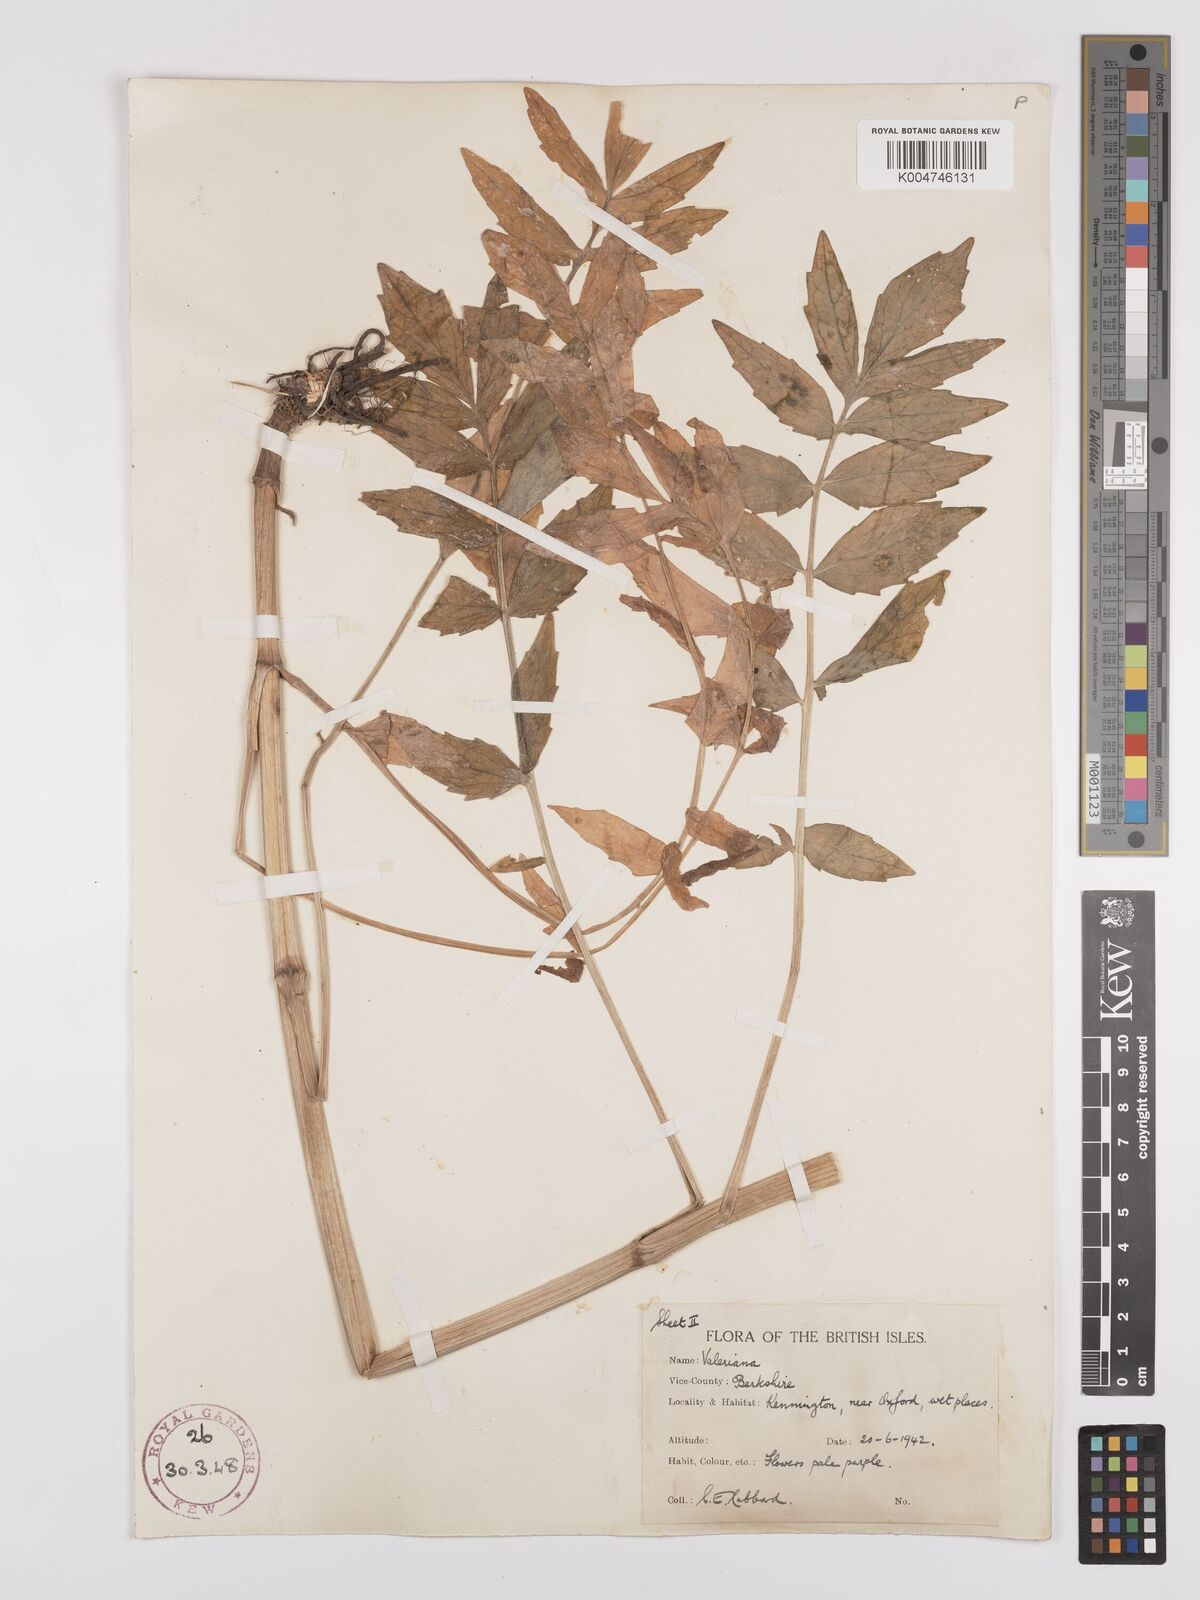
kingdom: Plantae
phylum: Tracheophyta
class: Magnoliopsida
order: Dipsacales
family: Caprifoliaceae
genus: Valeriana
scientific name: Valeriana excelsa
